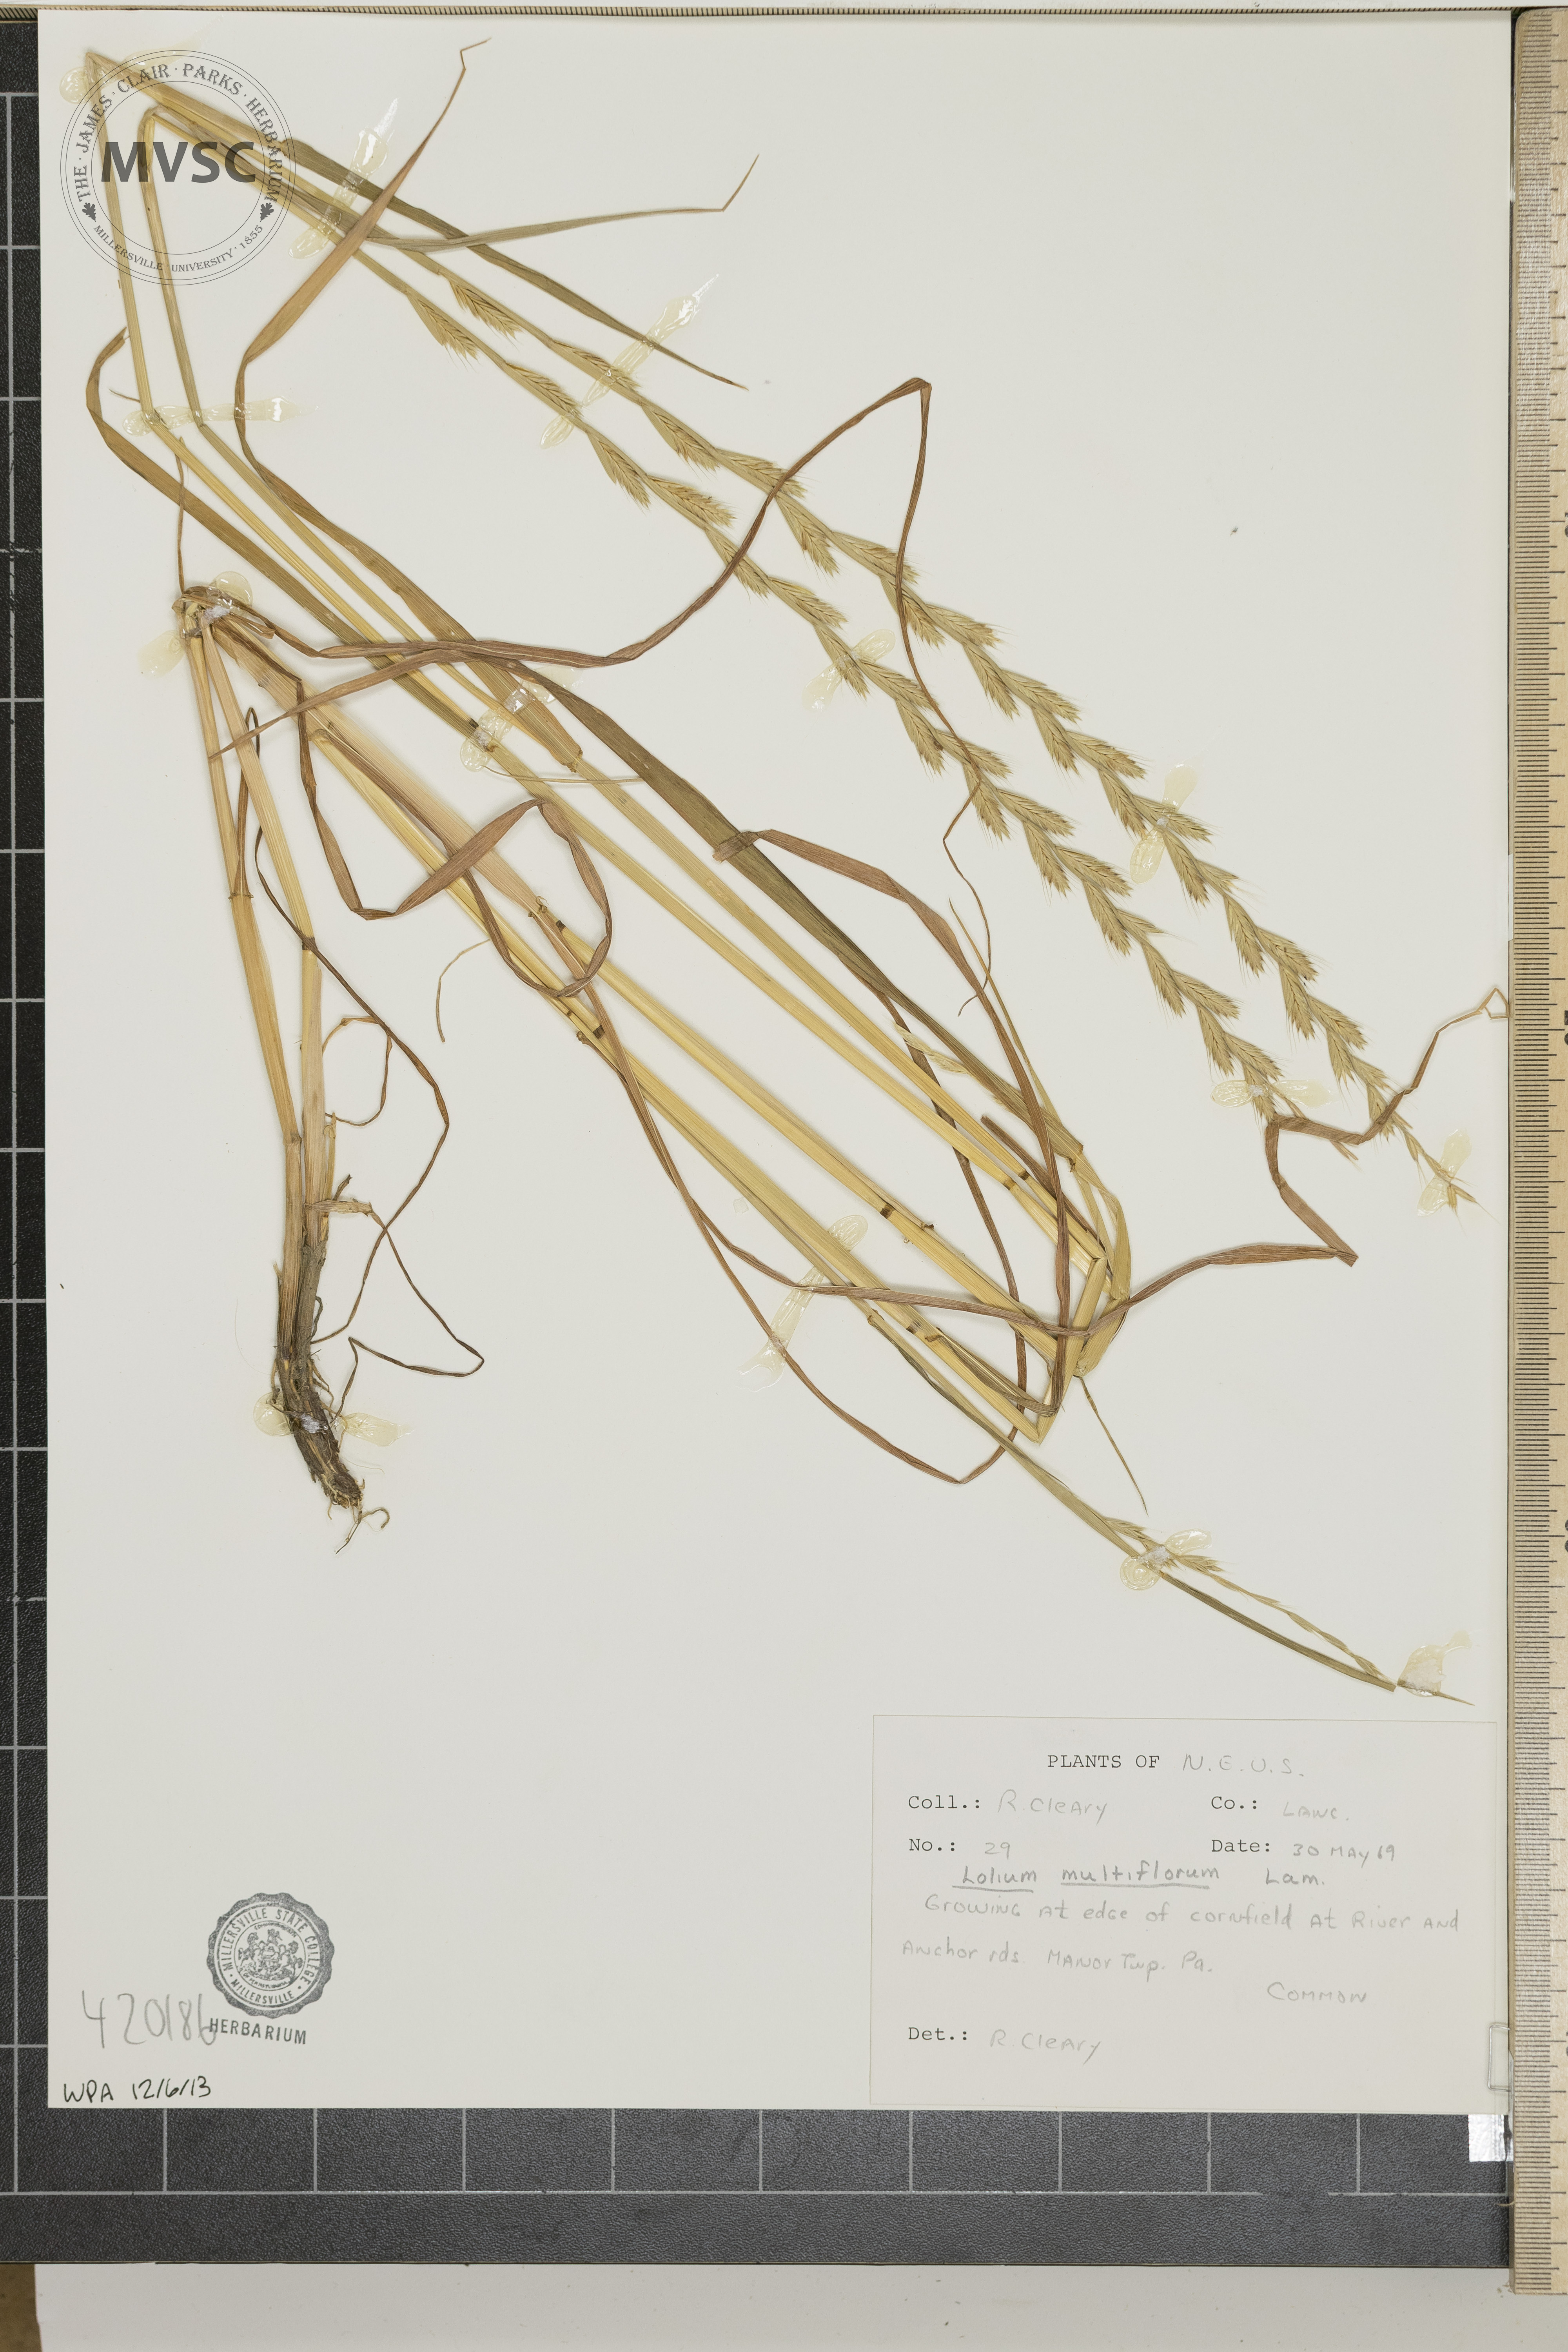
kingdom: Plantae
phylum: Tracheophyta
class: Liliopsida
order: Poales
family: Poaceae
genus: Lolium
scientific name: Lolium multiflorum
